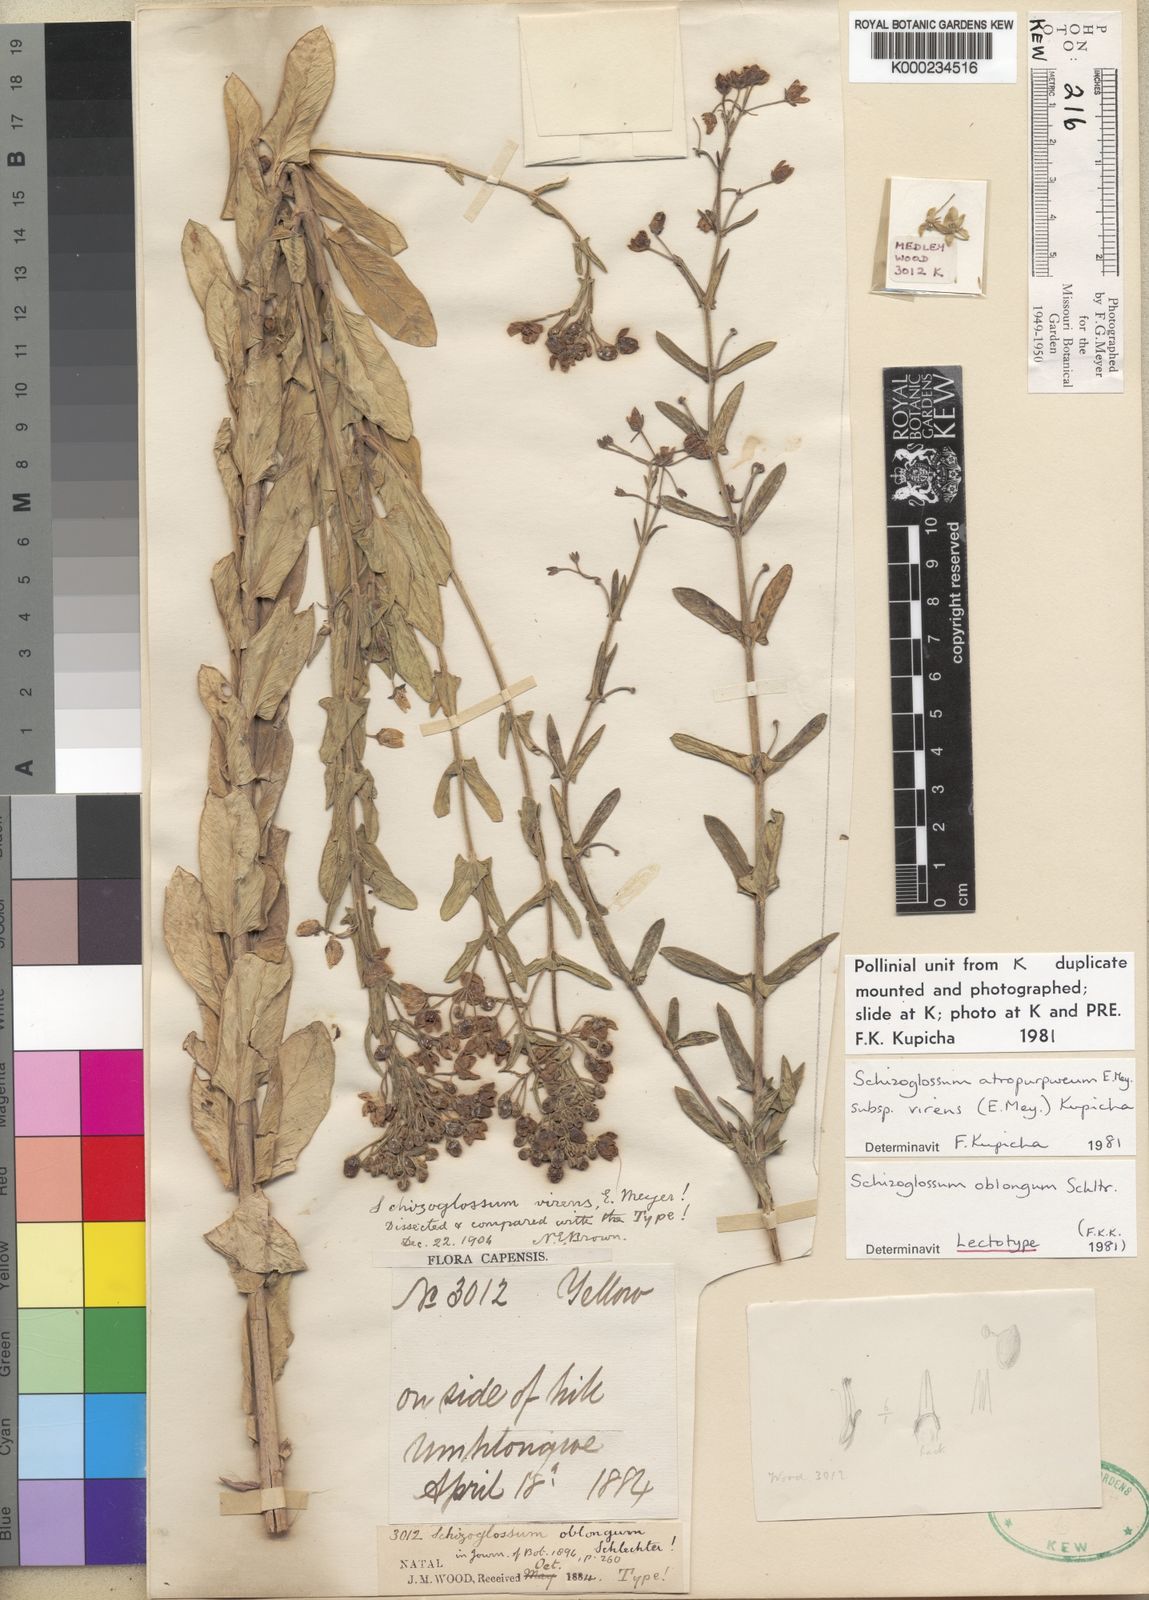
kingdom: Plantae
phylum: Tracheophyta
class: Magnoliopsida
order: Gentianales
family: Apocynaceae
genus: Schizoglossum
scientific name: Schizoglossum atropurpureum
